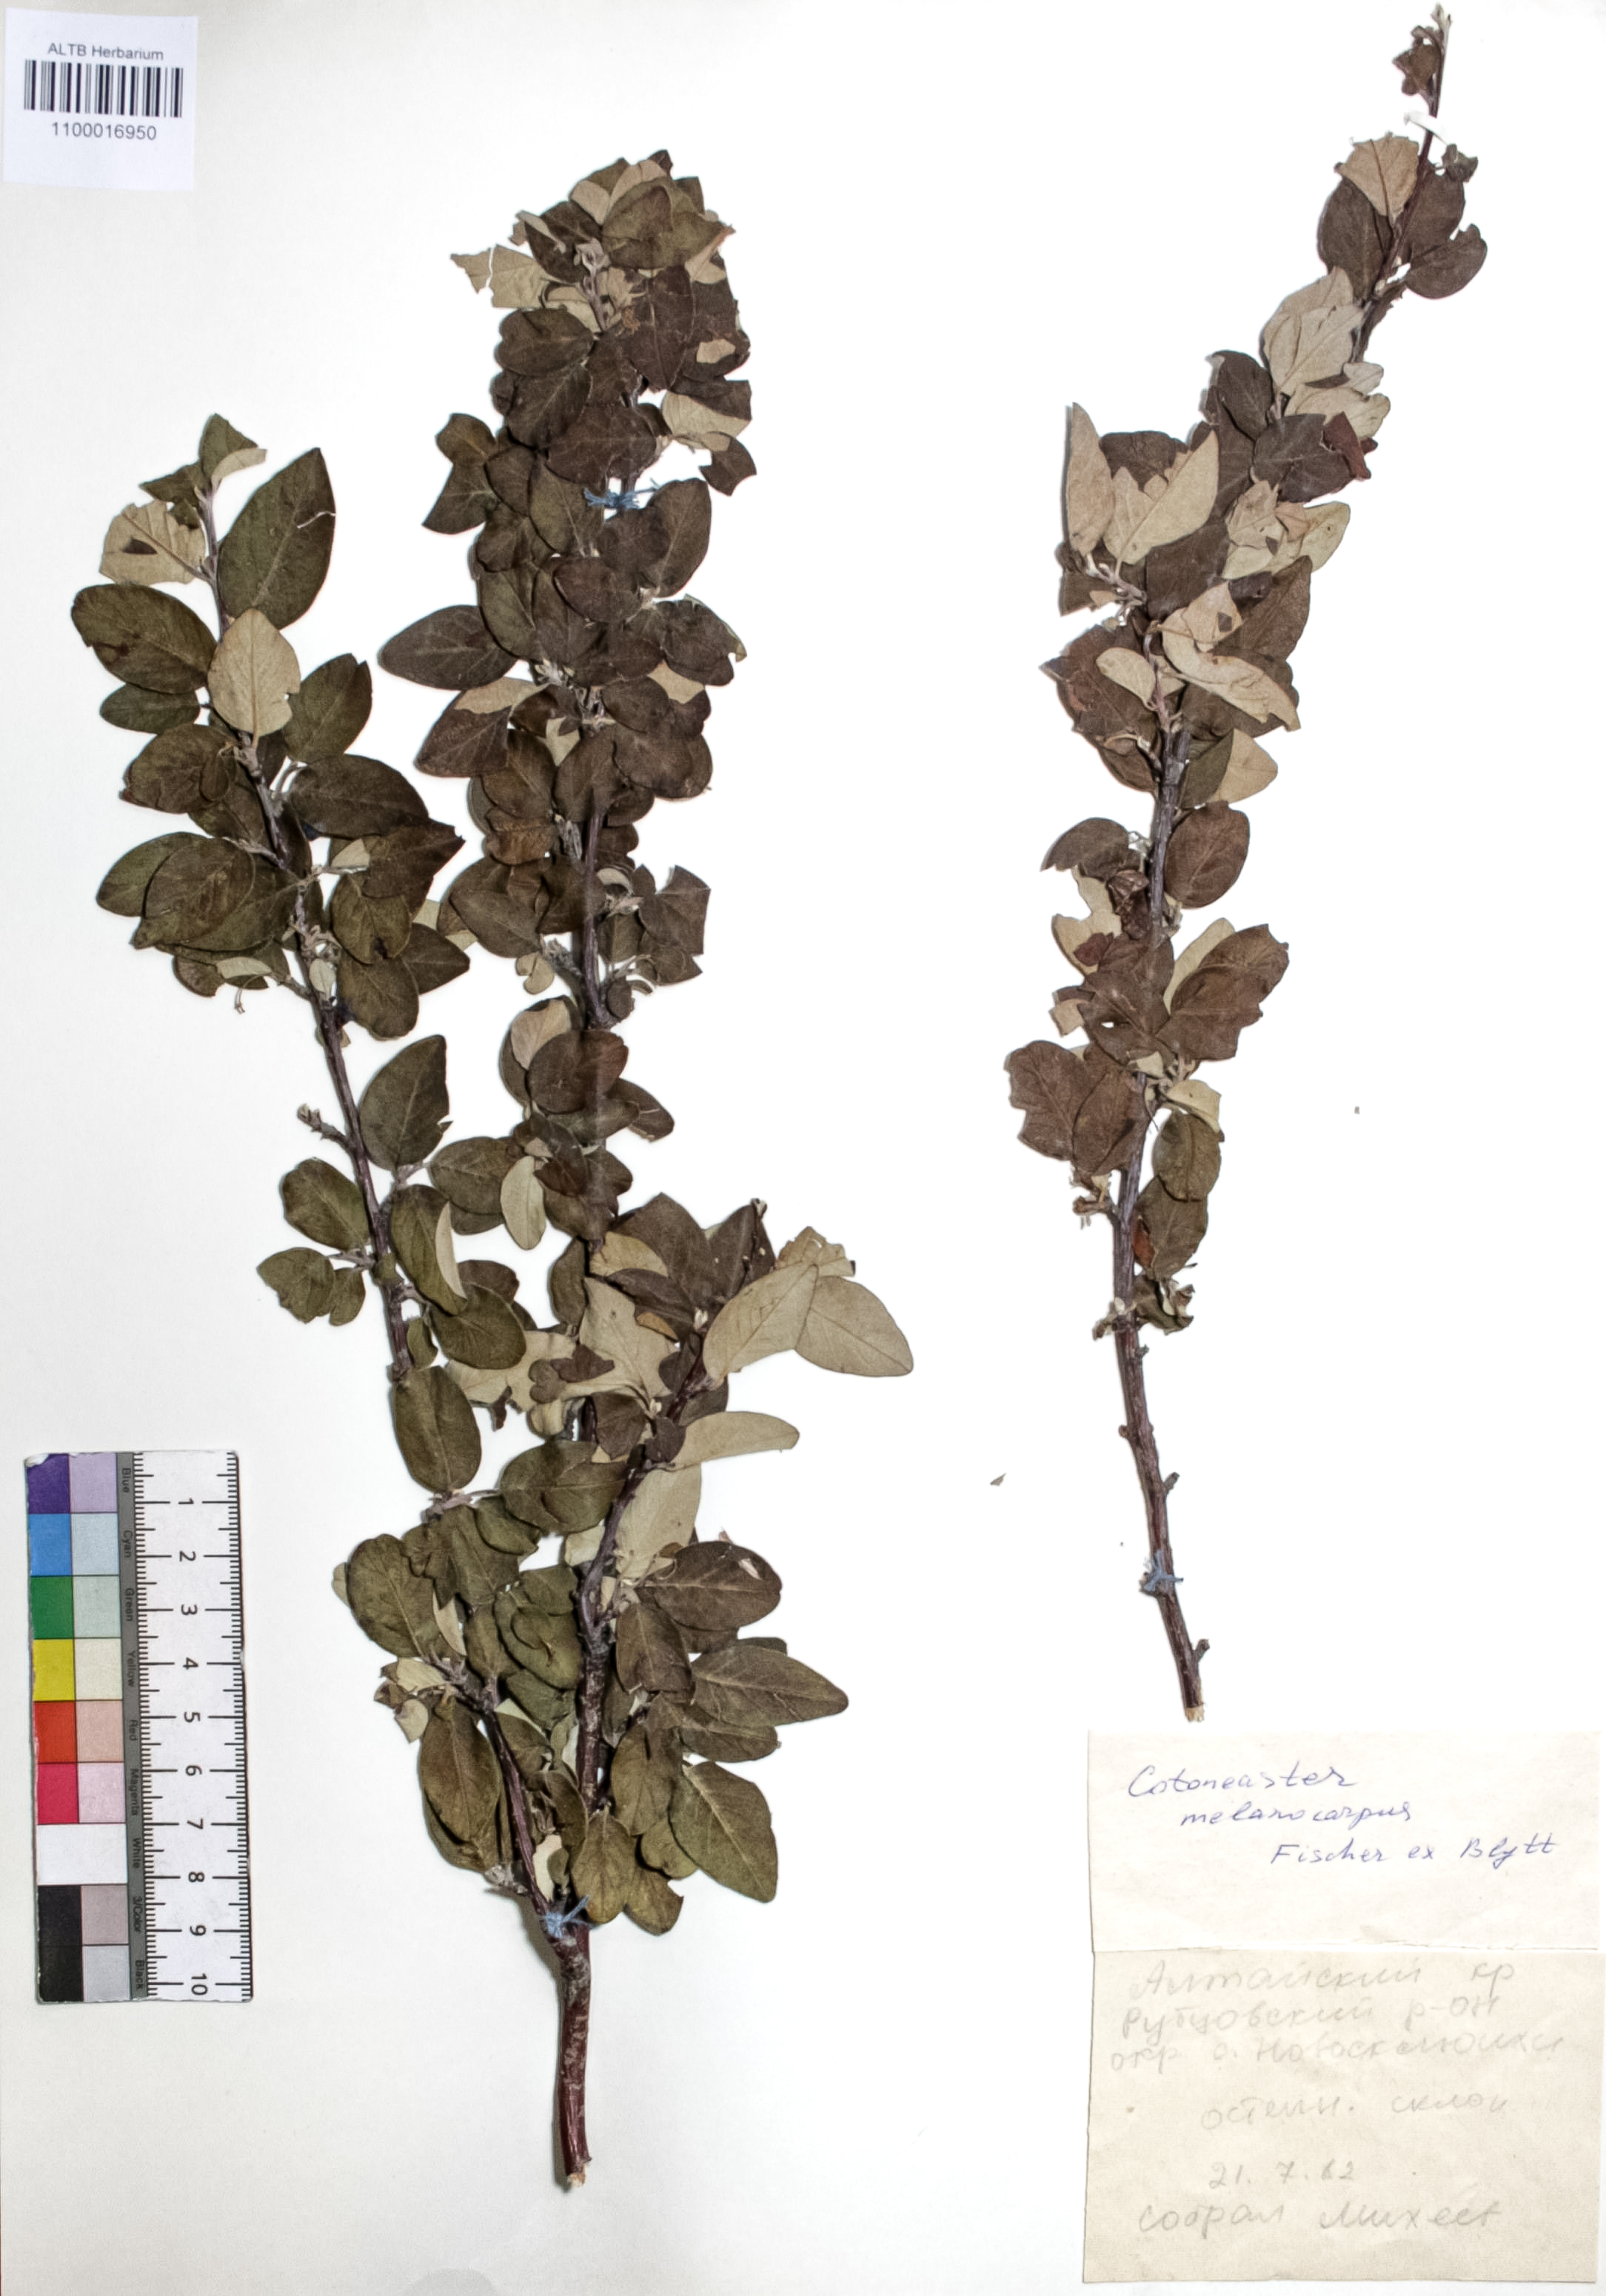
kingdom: Plantae
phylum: Tracheophyta
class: Magnoliopsida
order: Rosales
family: Rosaceae
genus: Cotoneaster
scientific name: Cotoneaster niger
